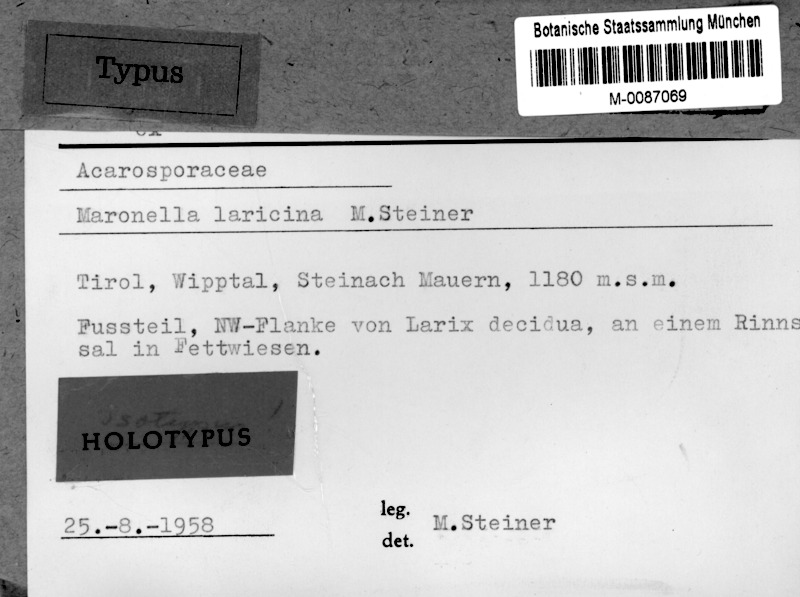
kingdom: Fungi
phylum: Ascomycota
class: Lecanoromycetes
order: Acarosporales
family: Acarosporaceae
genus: Maronella
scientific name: Maronella laricina
